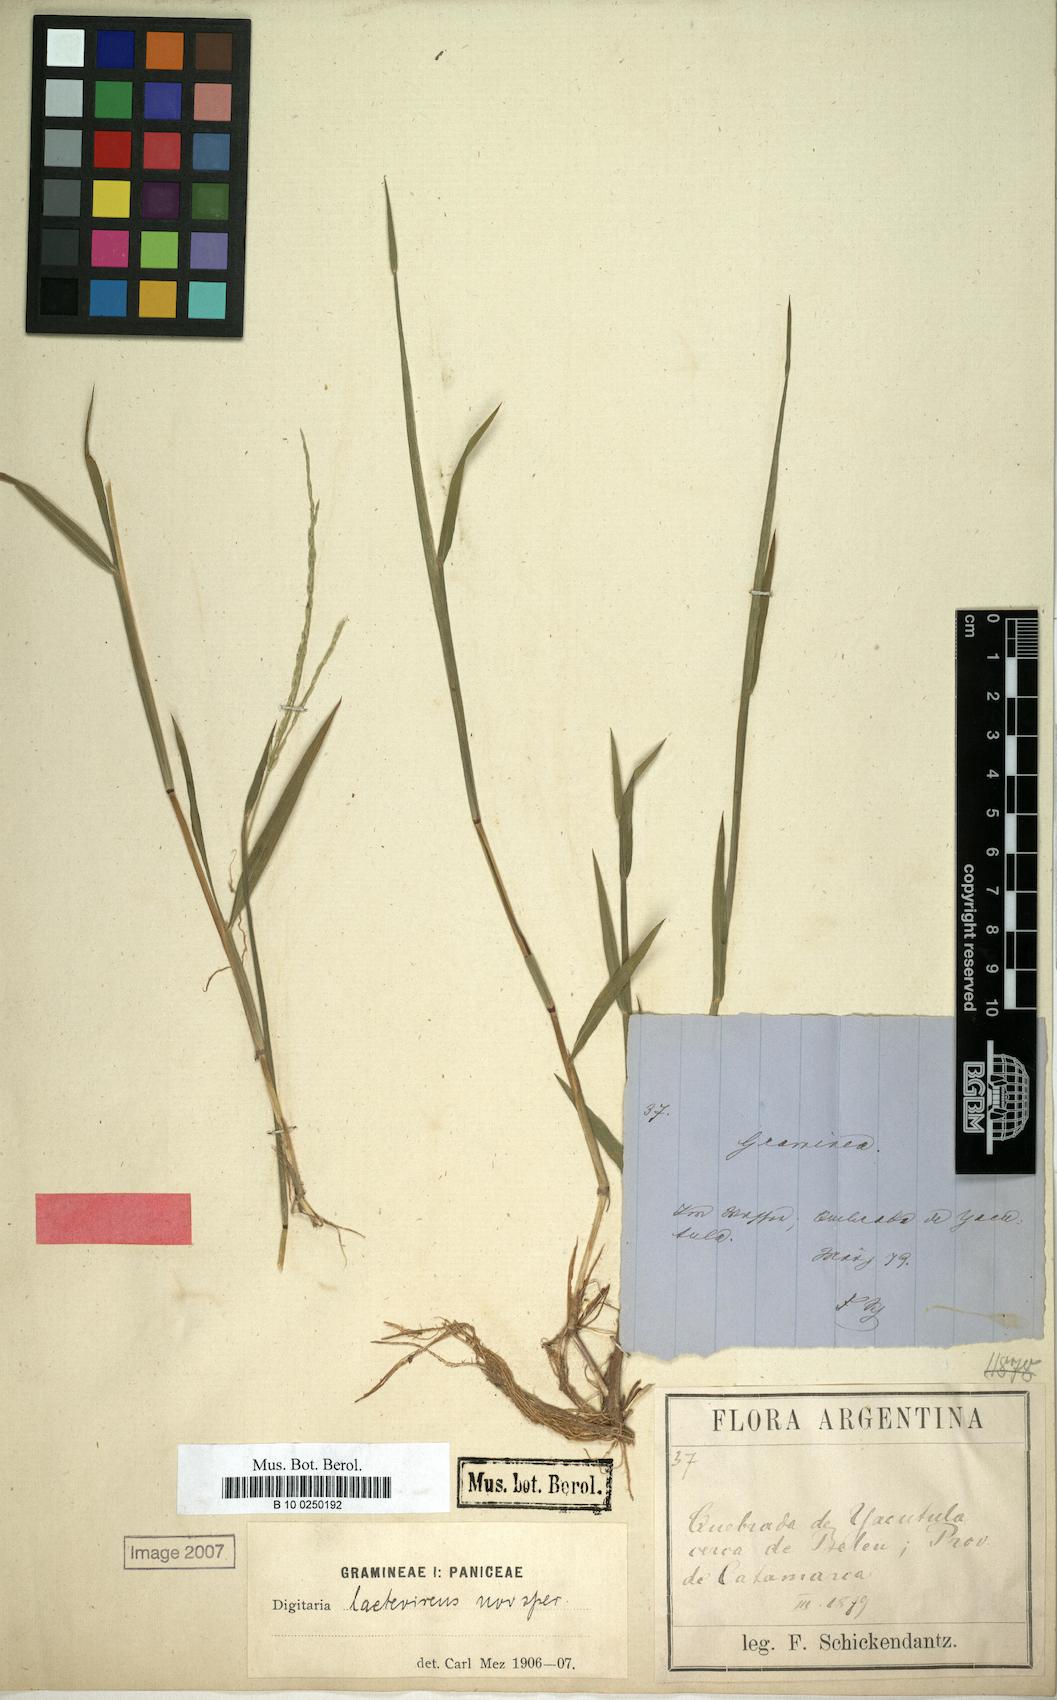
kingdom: Plantae
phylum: Tracheophyta
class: Liliopsida
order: Poales
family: Poaceae
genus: Digitaria
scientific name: Digitaria aequiglumis
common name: Argentinian crabgrass
